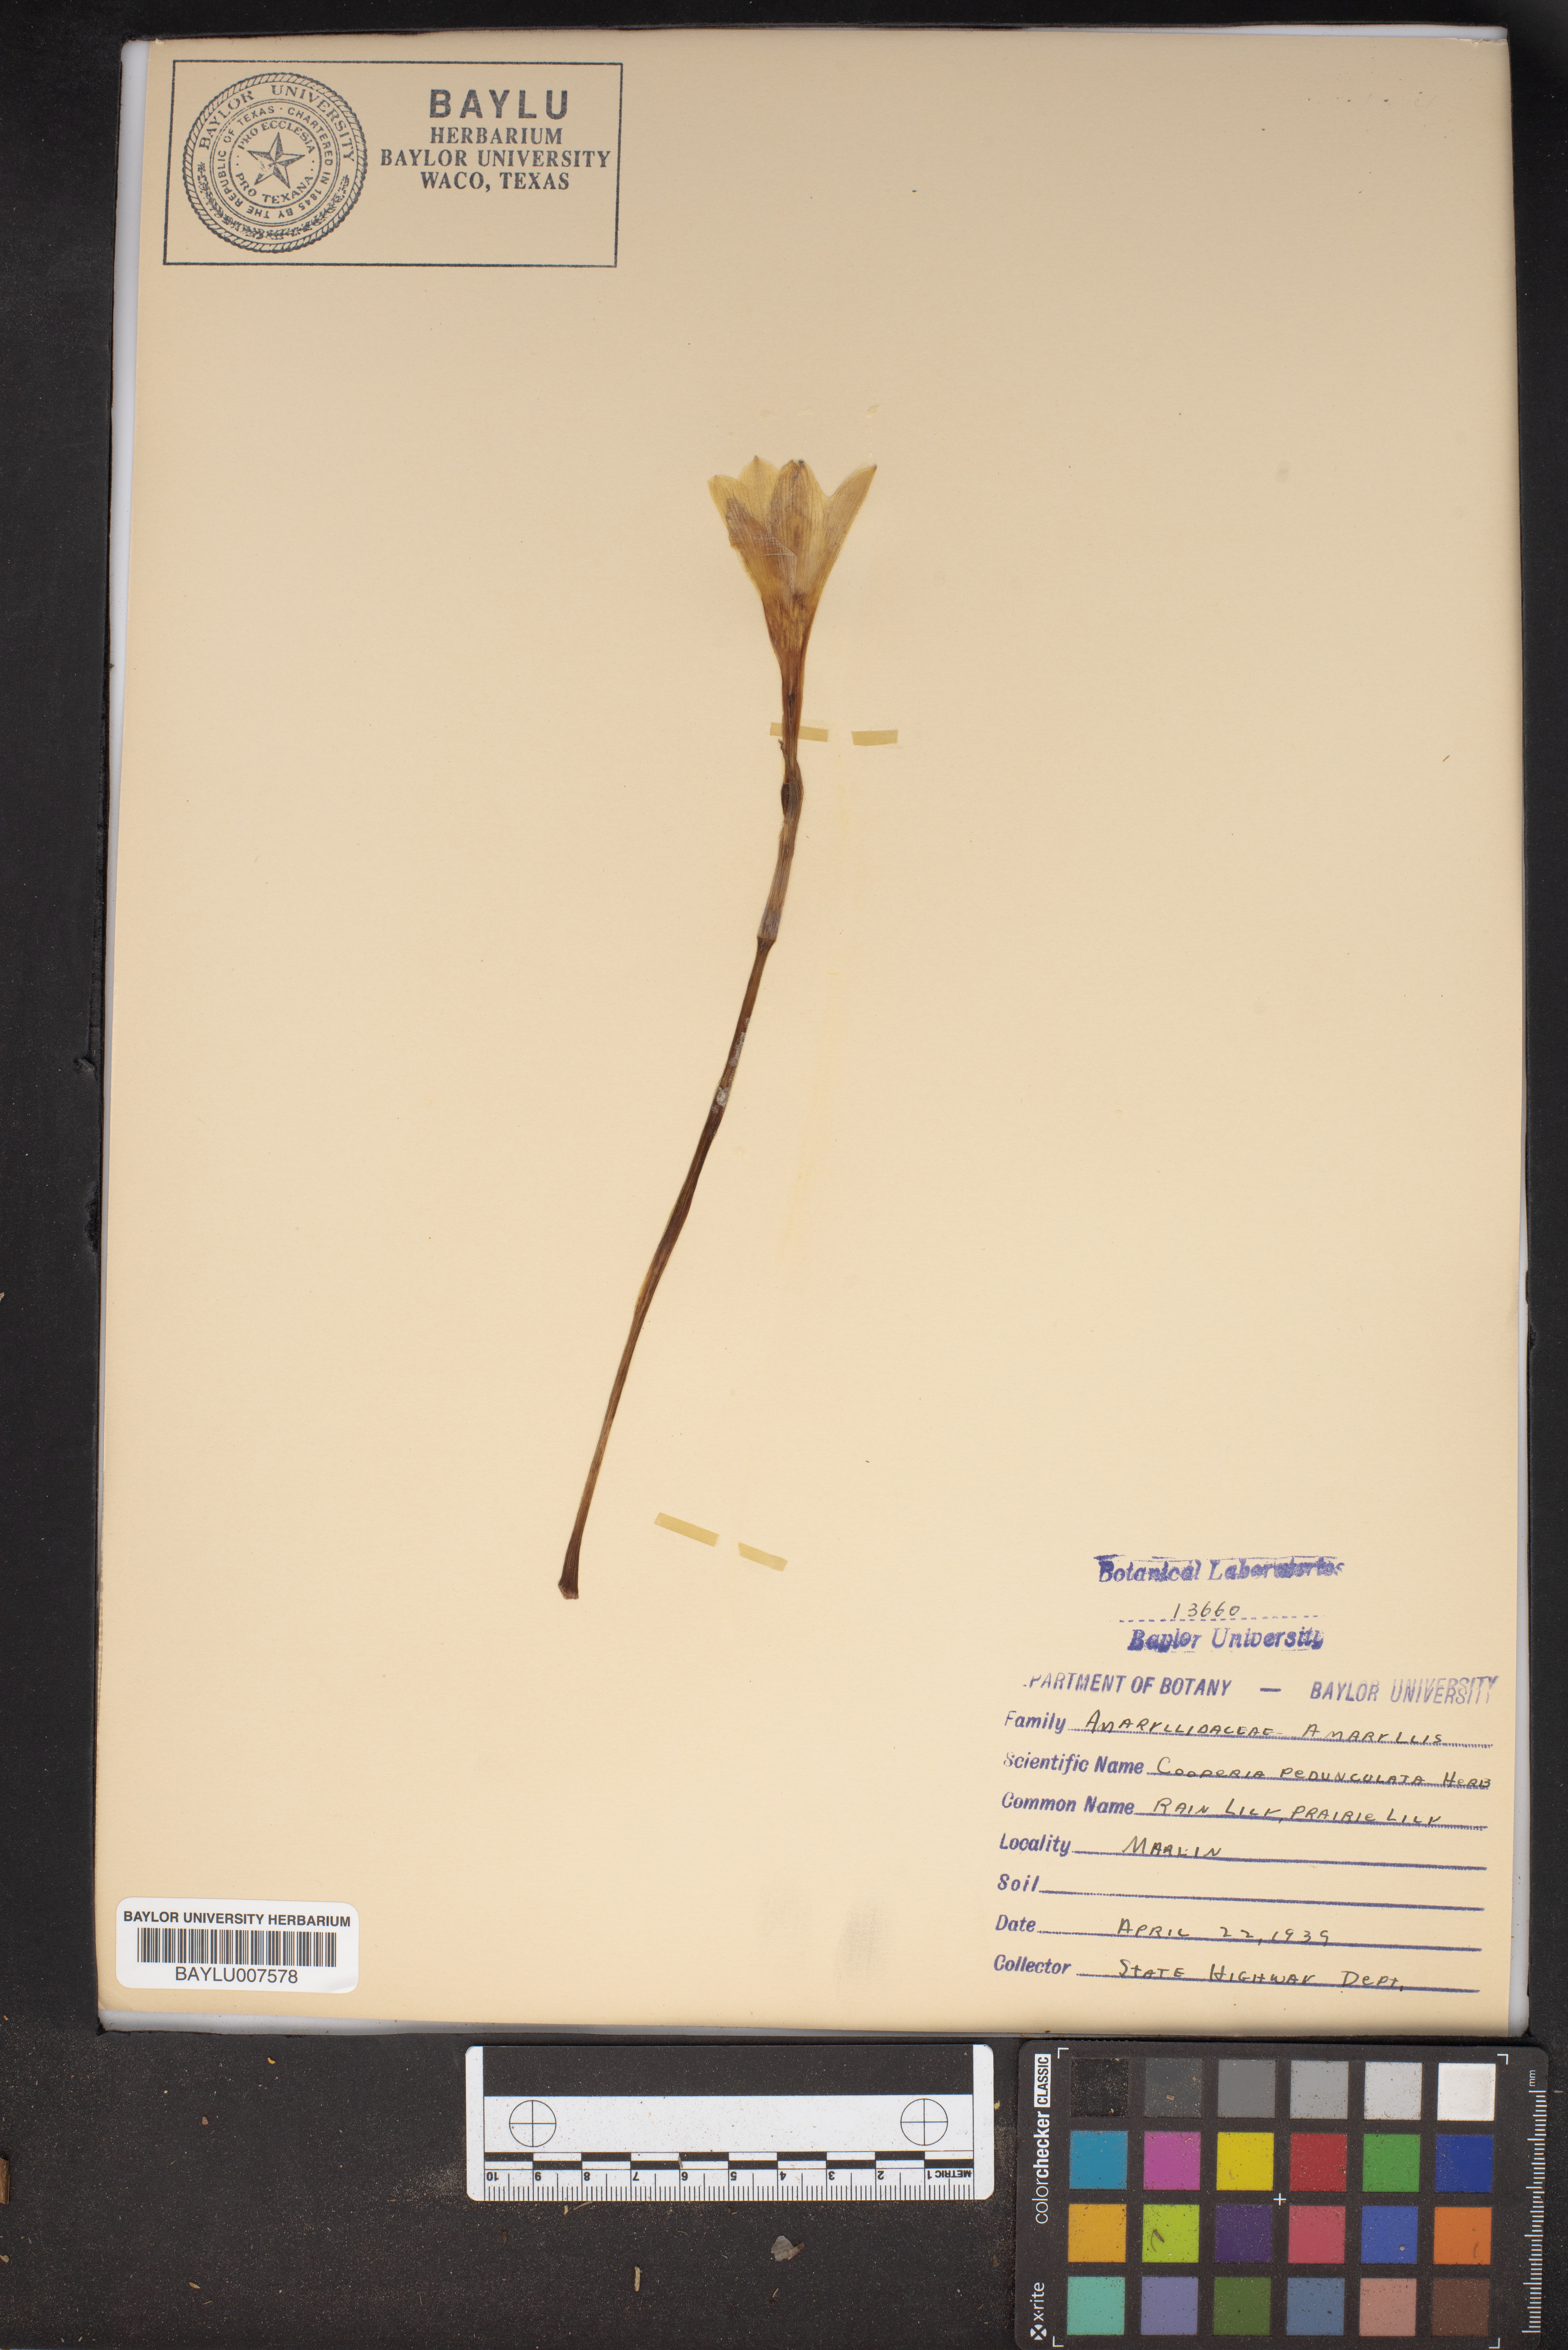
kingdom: Plantae
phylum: Tracheophyta
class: Liliopsida
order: Asparagales
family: Amaryllidaceae
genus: Zephyranthes
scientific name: Zephyranthes drummondii
